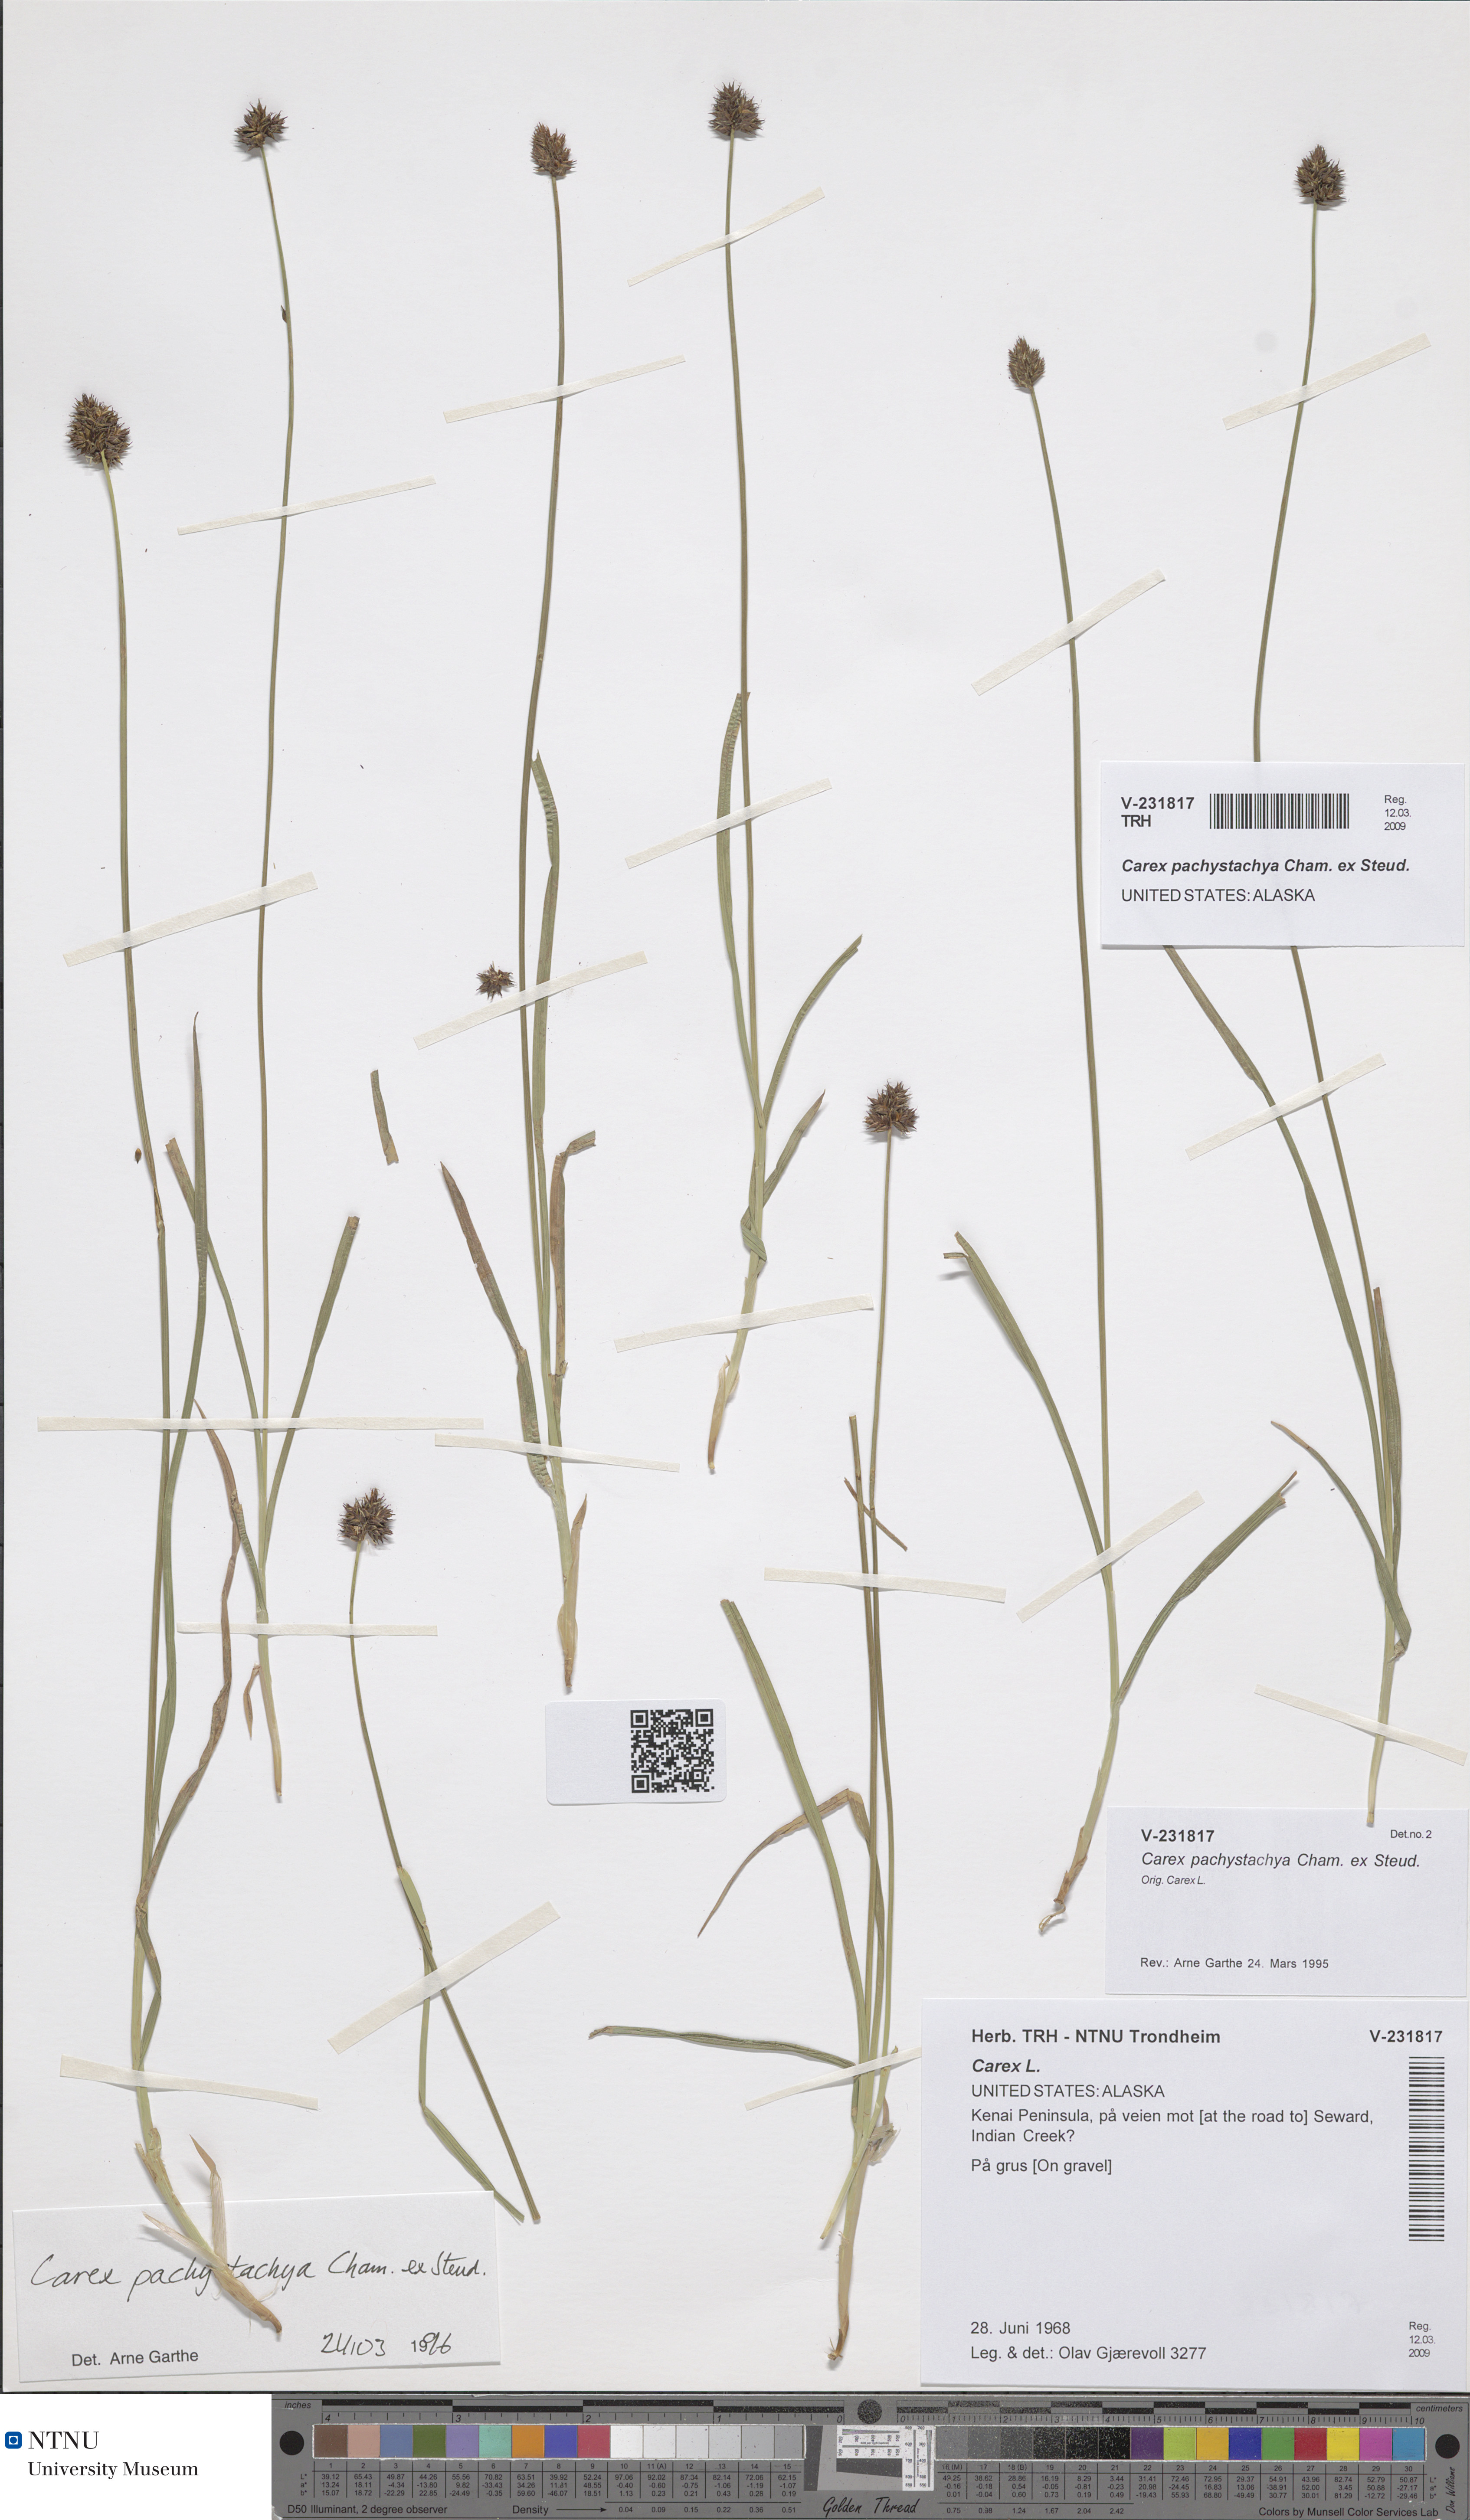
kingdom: Plantae
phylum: Tracheophyta
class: Liliopsida
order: Poales
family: Cyperaceae
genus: Carex
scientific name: Carex pachystachya
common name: Chamisso's sedge
